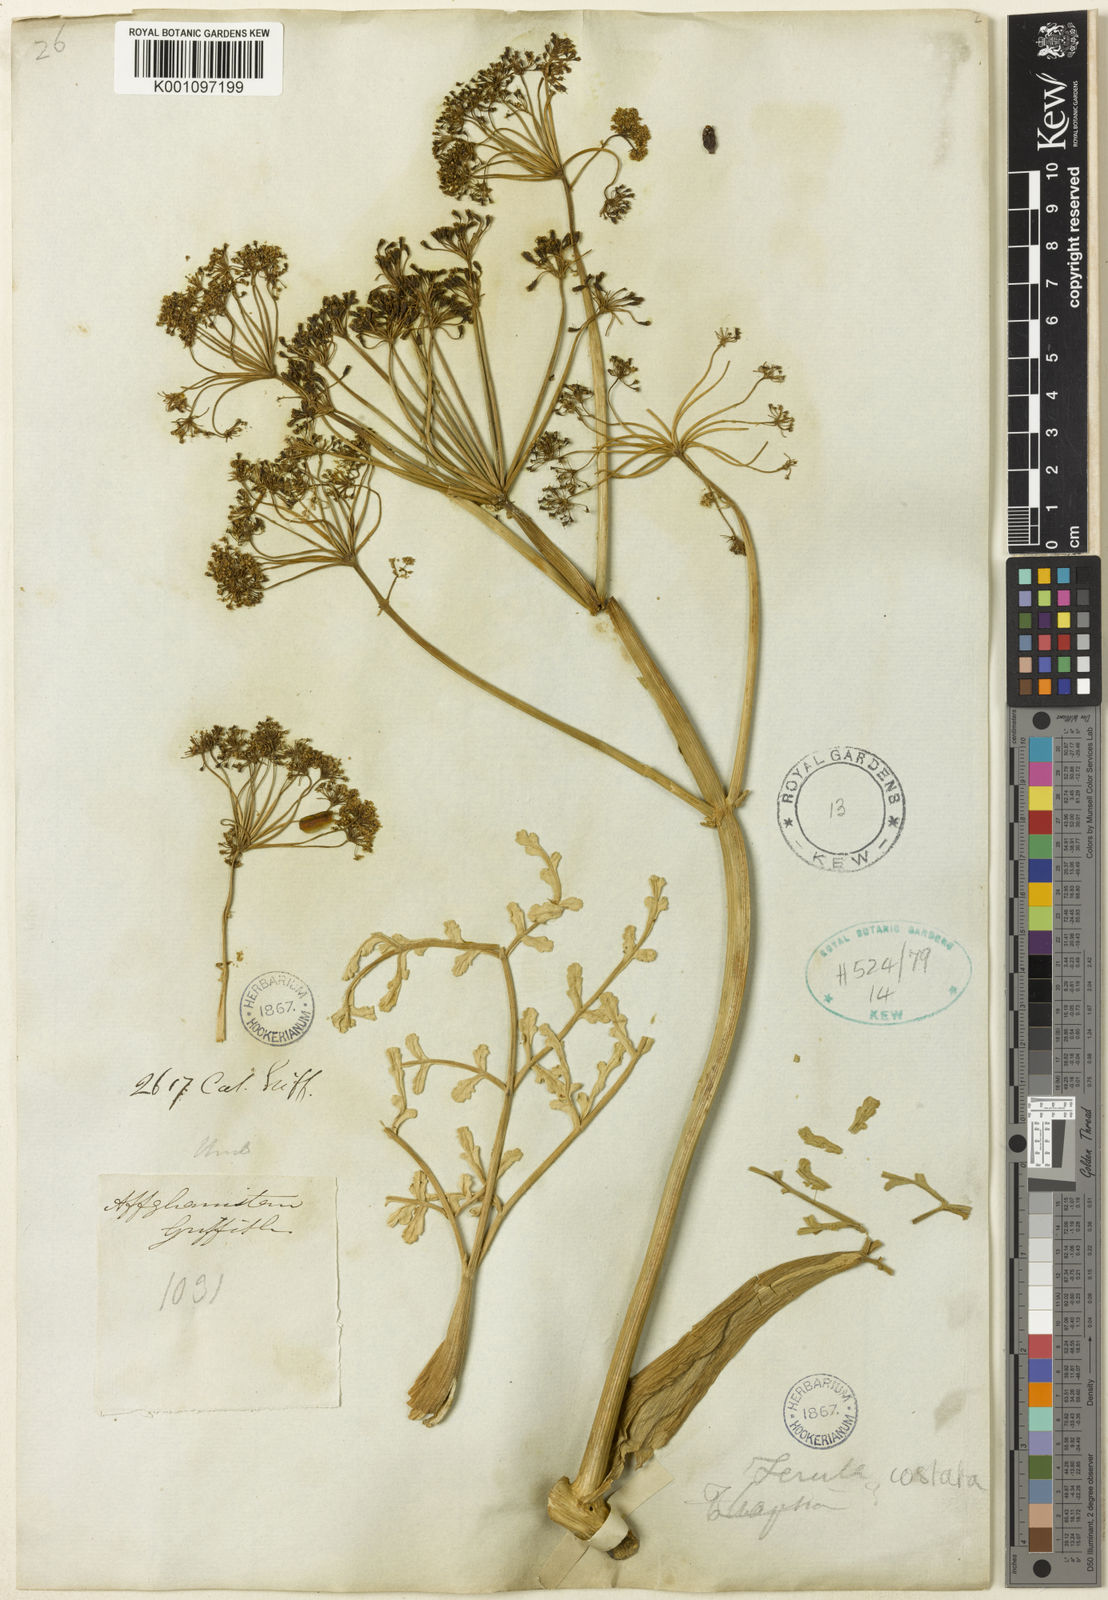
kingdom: Plantae
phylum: Tracheophyta
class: Magnoliopsida
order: Apiales
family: Apiaceae
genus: Ferula
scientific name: Ferula costata
